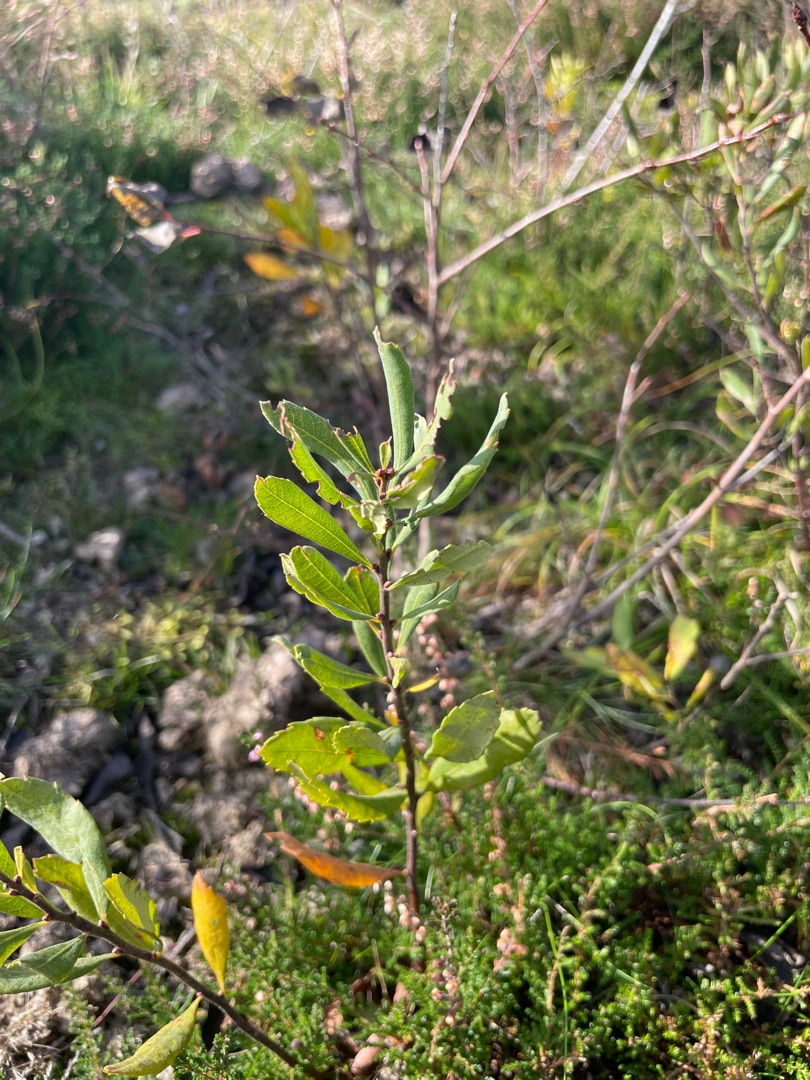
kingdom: Plantae
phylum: Tracheophyta
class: Magnoliopsida
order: Fagales
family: Myricaceae
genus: Myrica
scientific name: Myrica gale
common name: Pors
